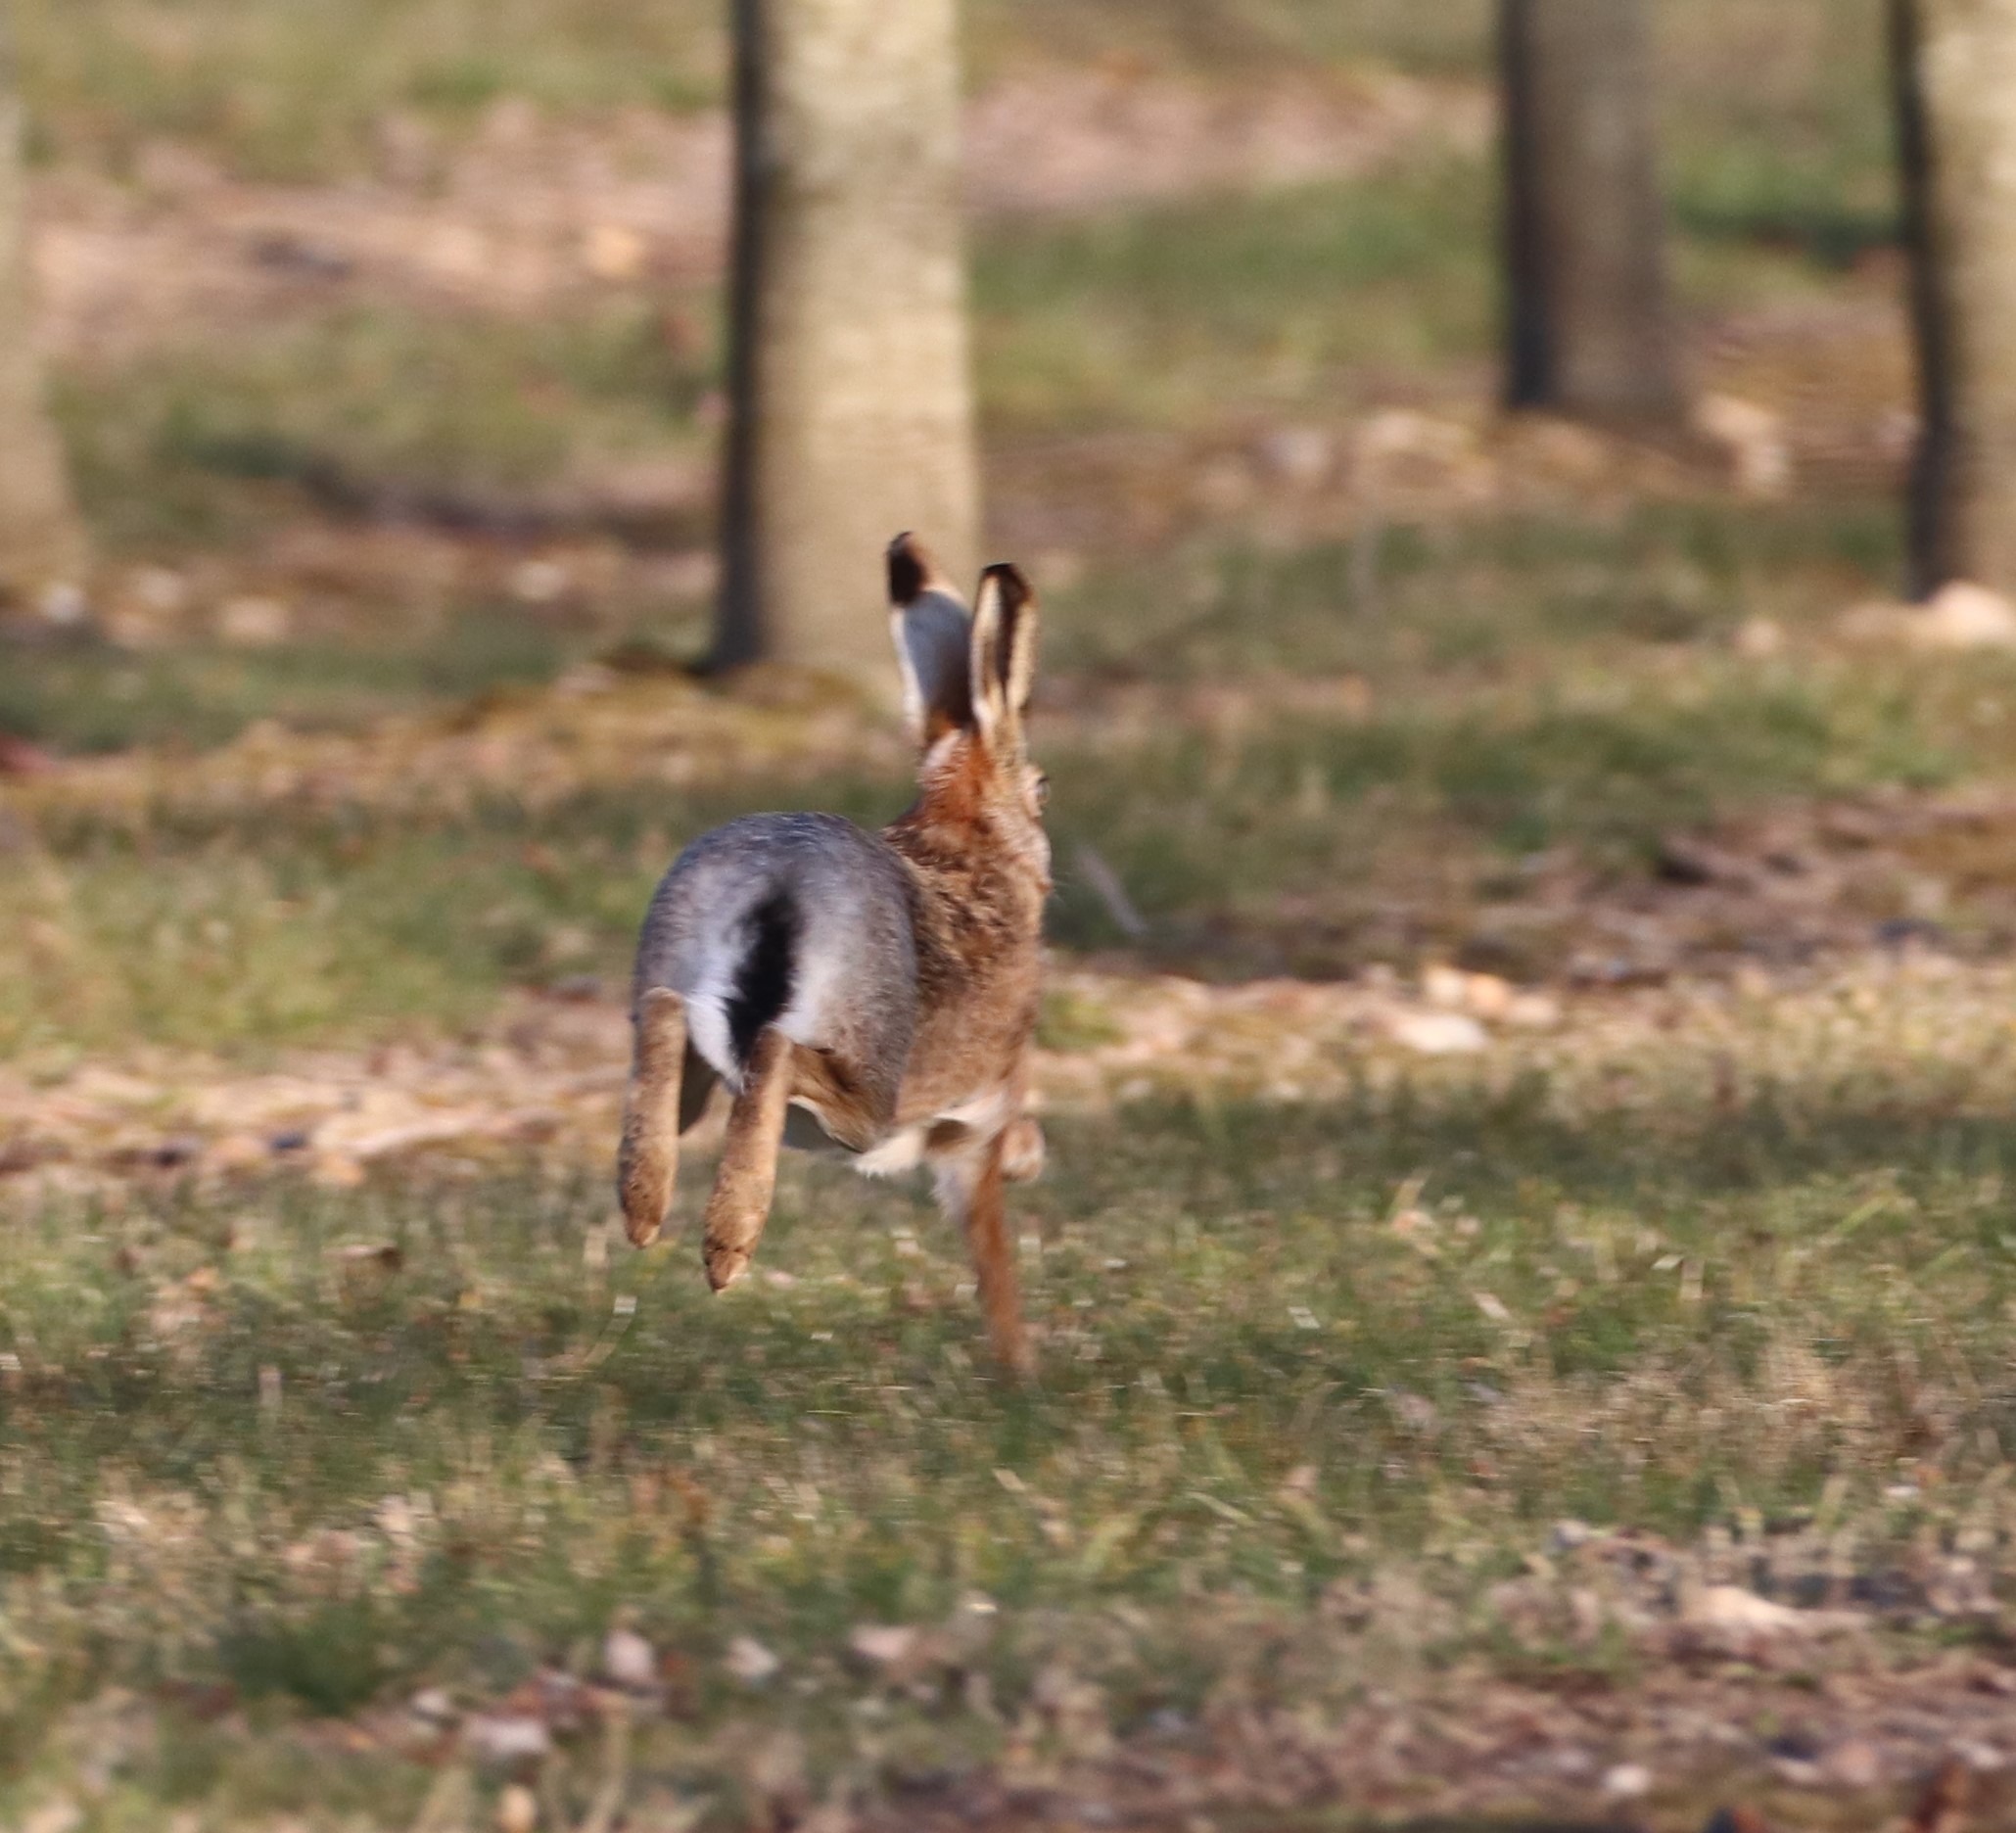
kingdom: Animalia
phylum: Chordata
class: Mammalia
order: Lagomorpha
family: Leporidae
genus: Lepus
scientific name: Lepus europaeus
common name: Hare
